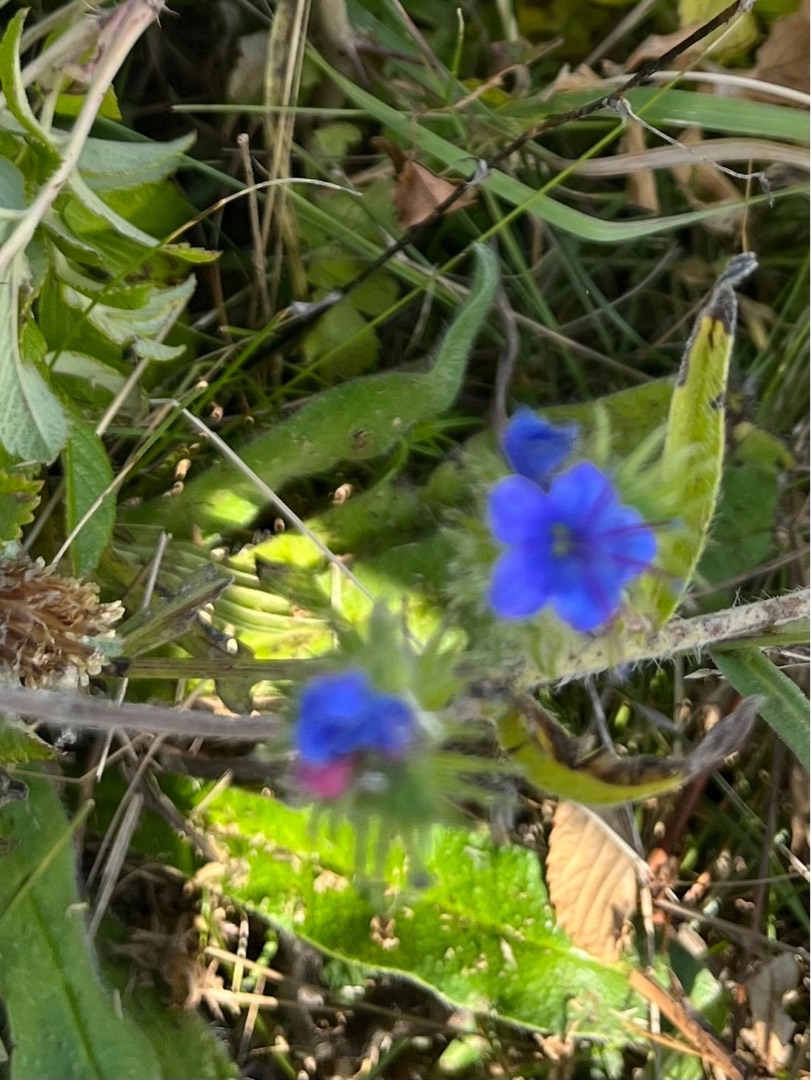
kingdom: Plantae
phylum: Tracheophyta
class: Magnoliopsida
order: Boraginales
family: Boraginaceae
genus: Echium
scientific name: Echium vulgare
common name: Slangehoved
